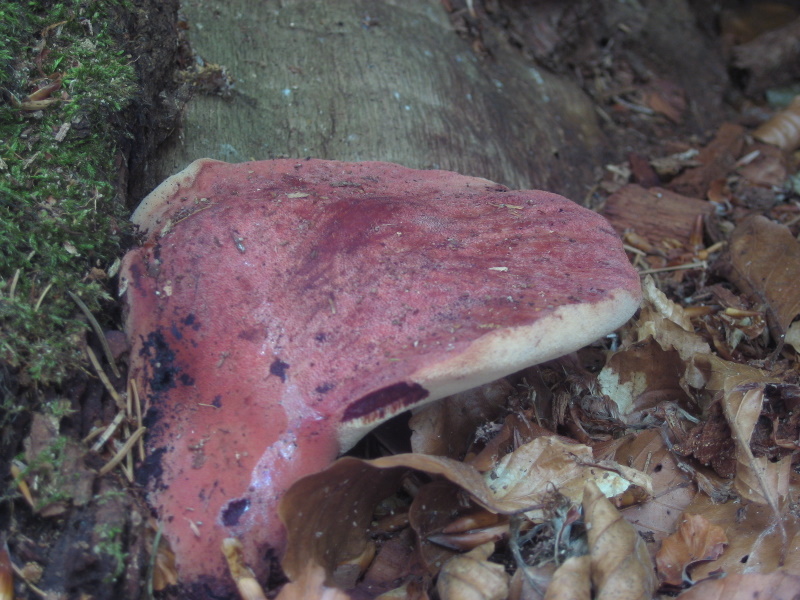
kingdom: Fungi
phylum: Basidiomycota
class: Agaricomycetes
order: Agaricales
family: Fistulinaceae
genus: Fistulina
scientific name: Fistulina hepatica
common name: oksetunge
